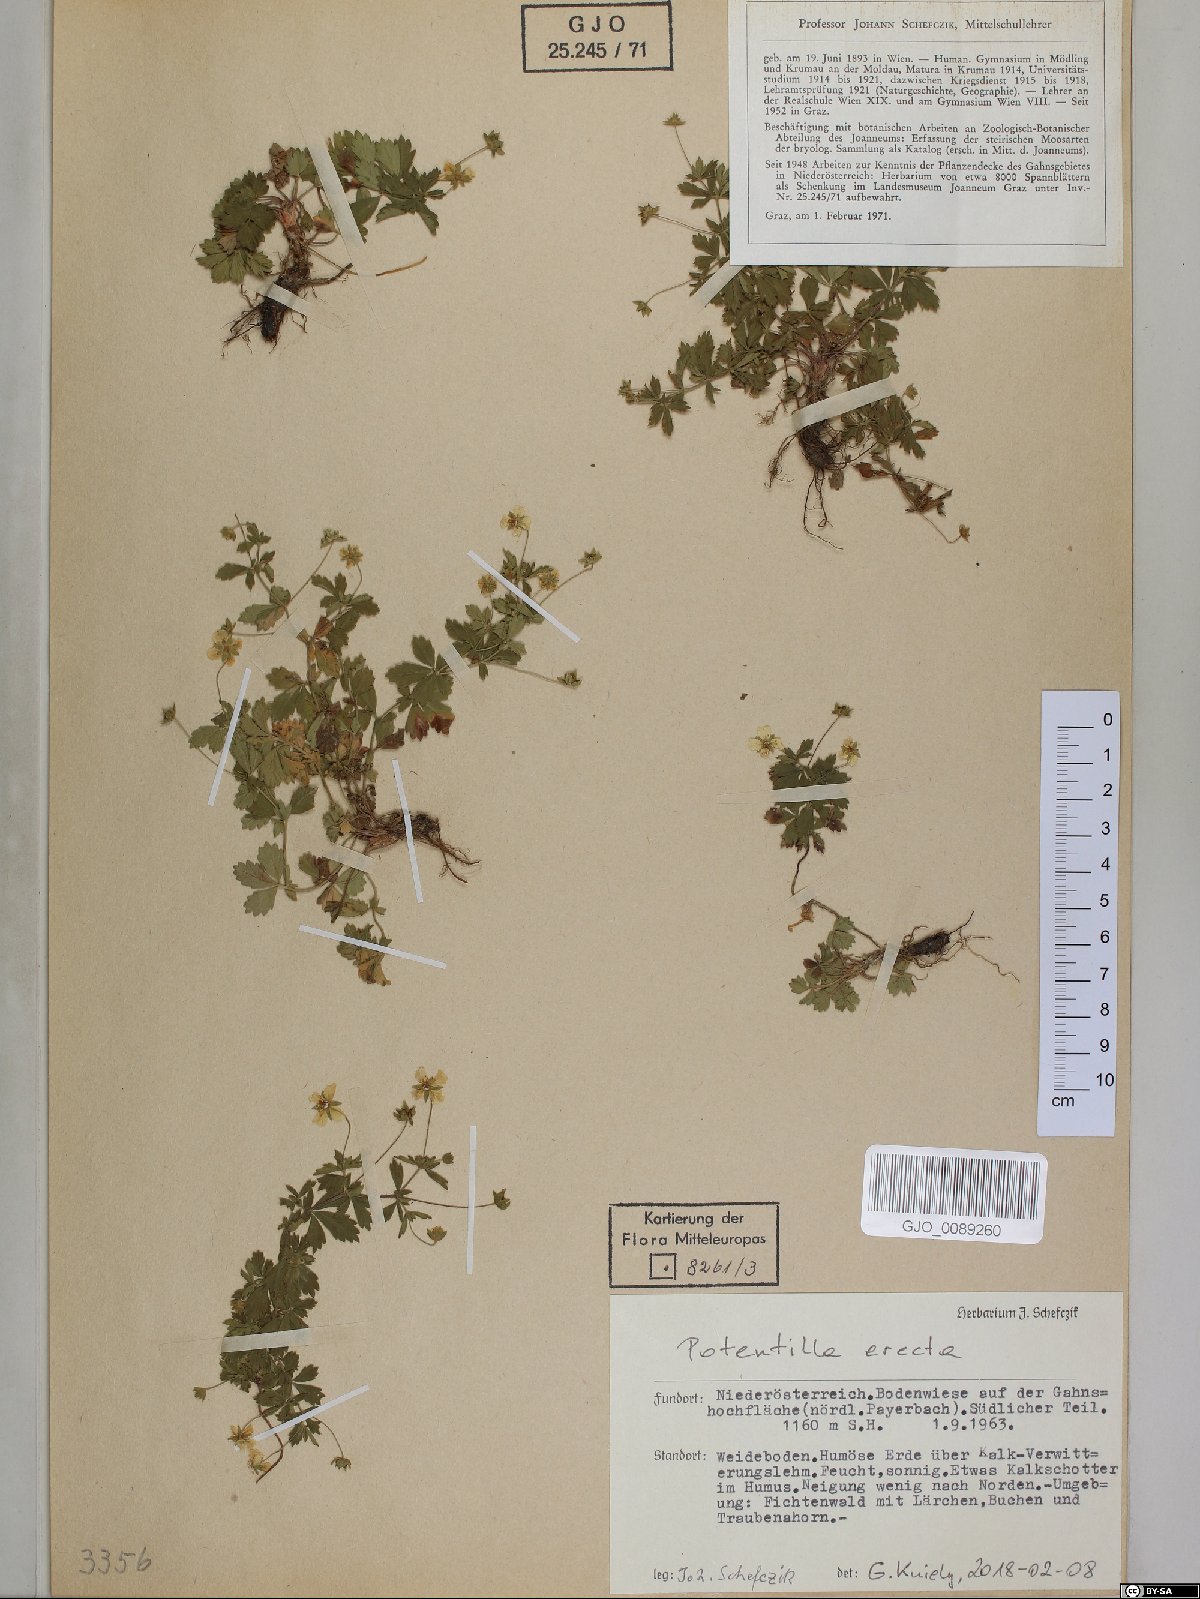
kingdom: Plantae
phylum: Tracheophyta
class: Magnoliopsida
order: Rosales
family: Rosaceae
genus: Potentilla
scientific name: Potentilla erecta
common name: Tormentil
